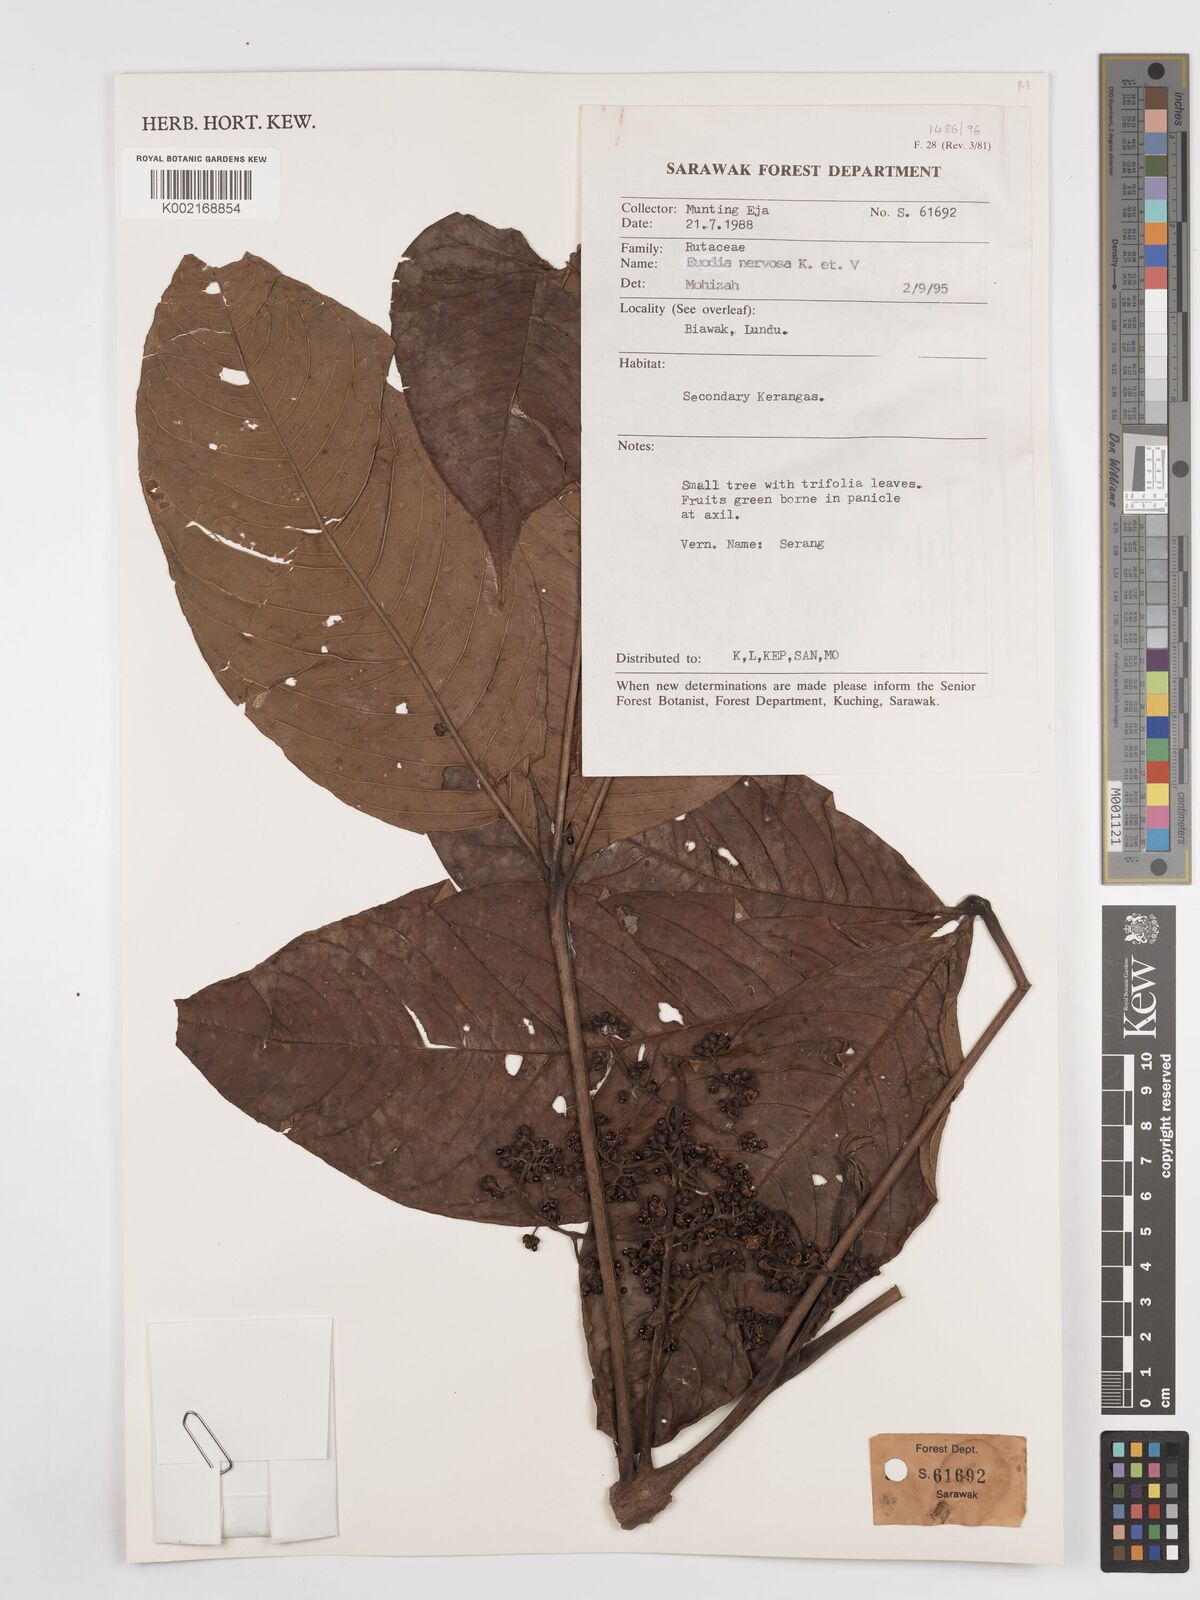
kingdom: Plantae
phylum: Tracheophyta
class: Magnoliopsida
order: Sapindales
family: Rutaceae
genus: Melicope
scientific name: Melicope accedens
